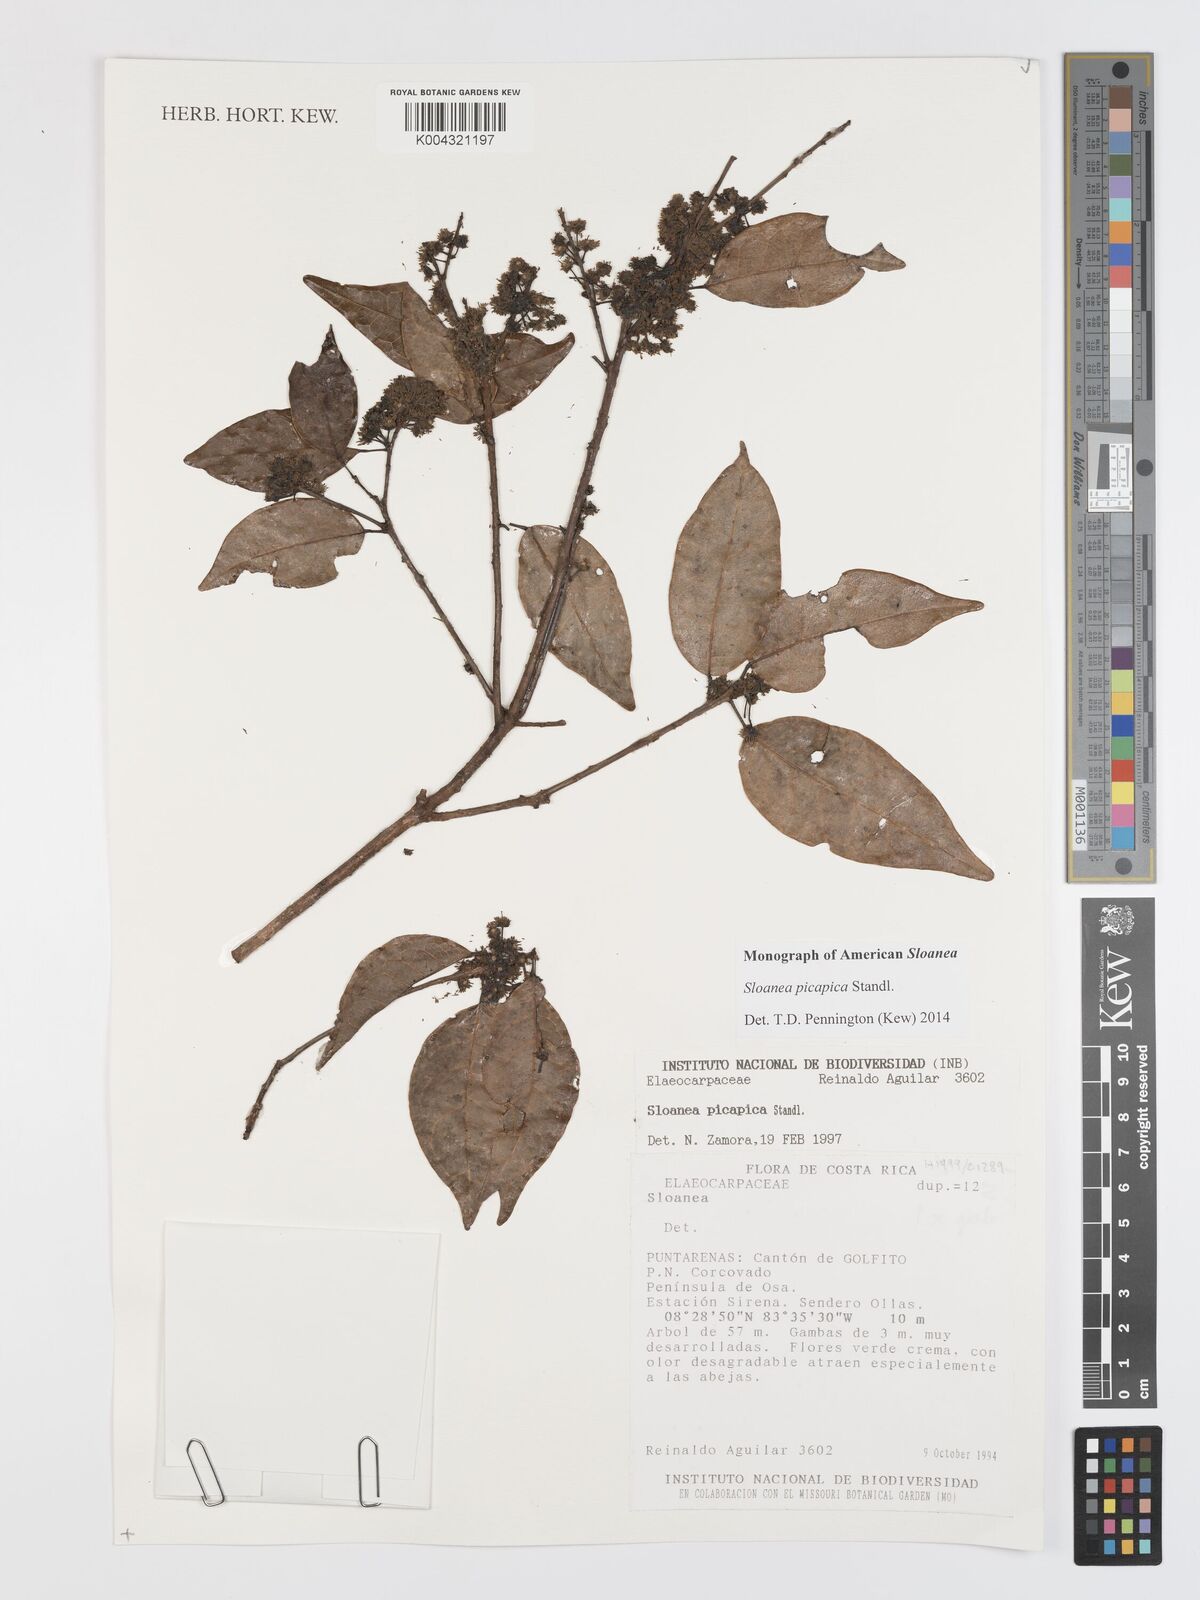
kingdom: Plantae
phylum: Tracheophyta
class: Magnoliopsida
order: Oxalidales
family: Elaeocarpaceae
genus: Sloanea
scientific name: Sloanea picapica
